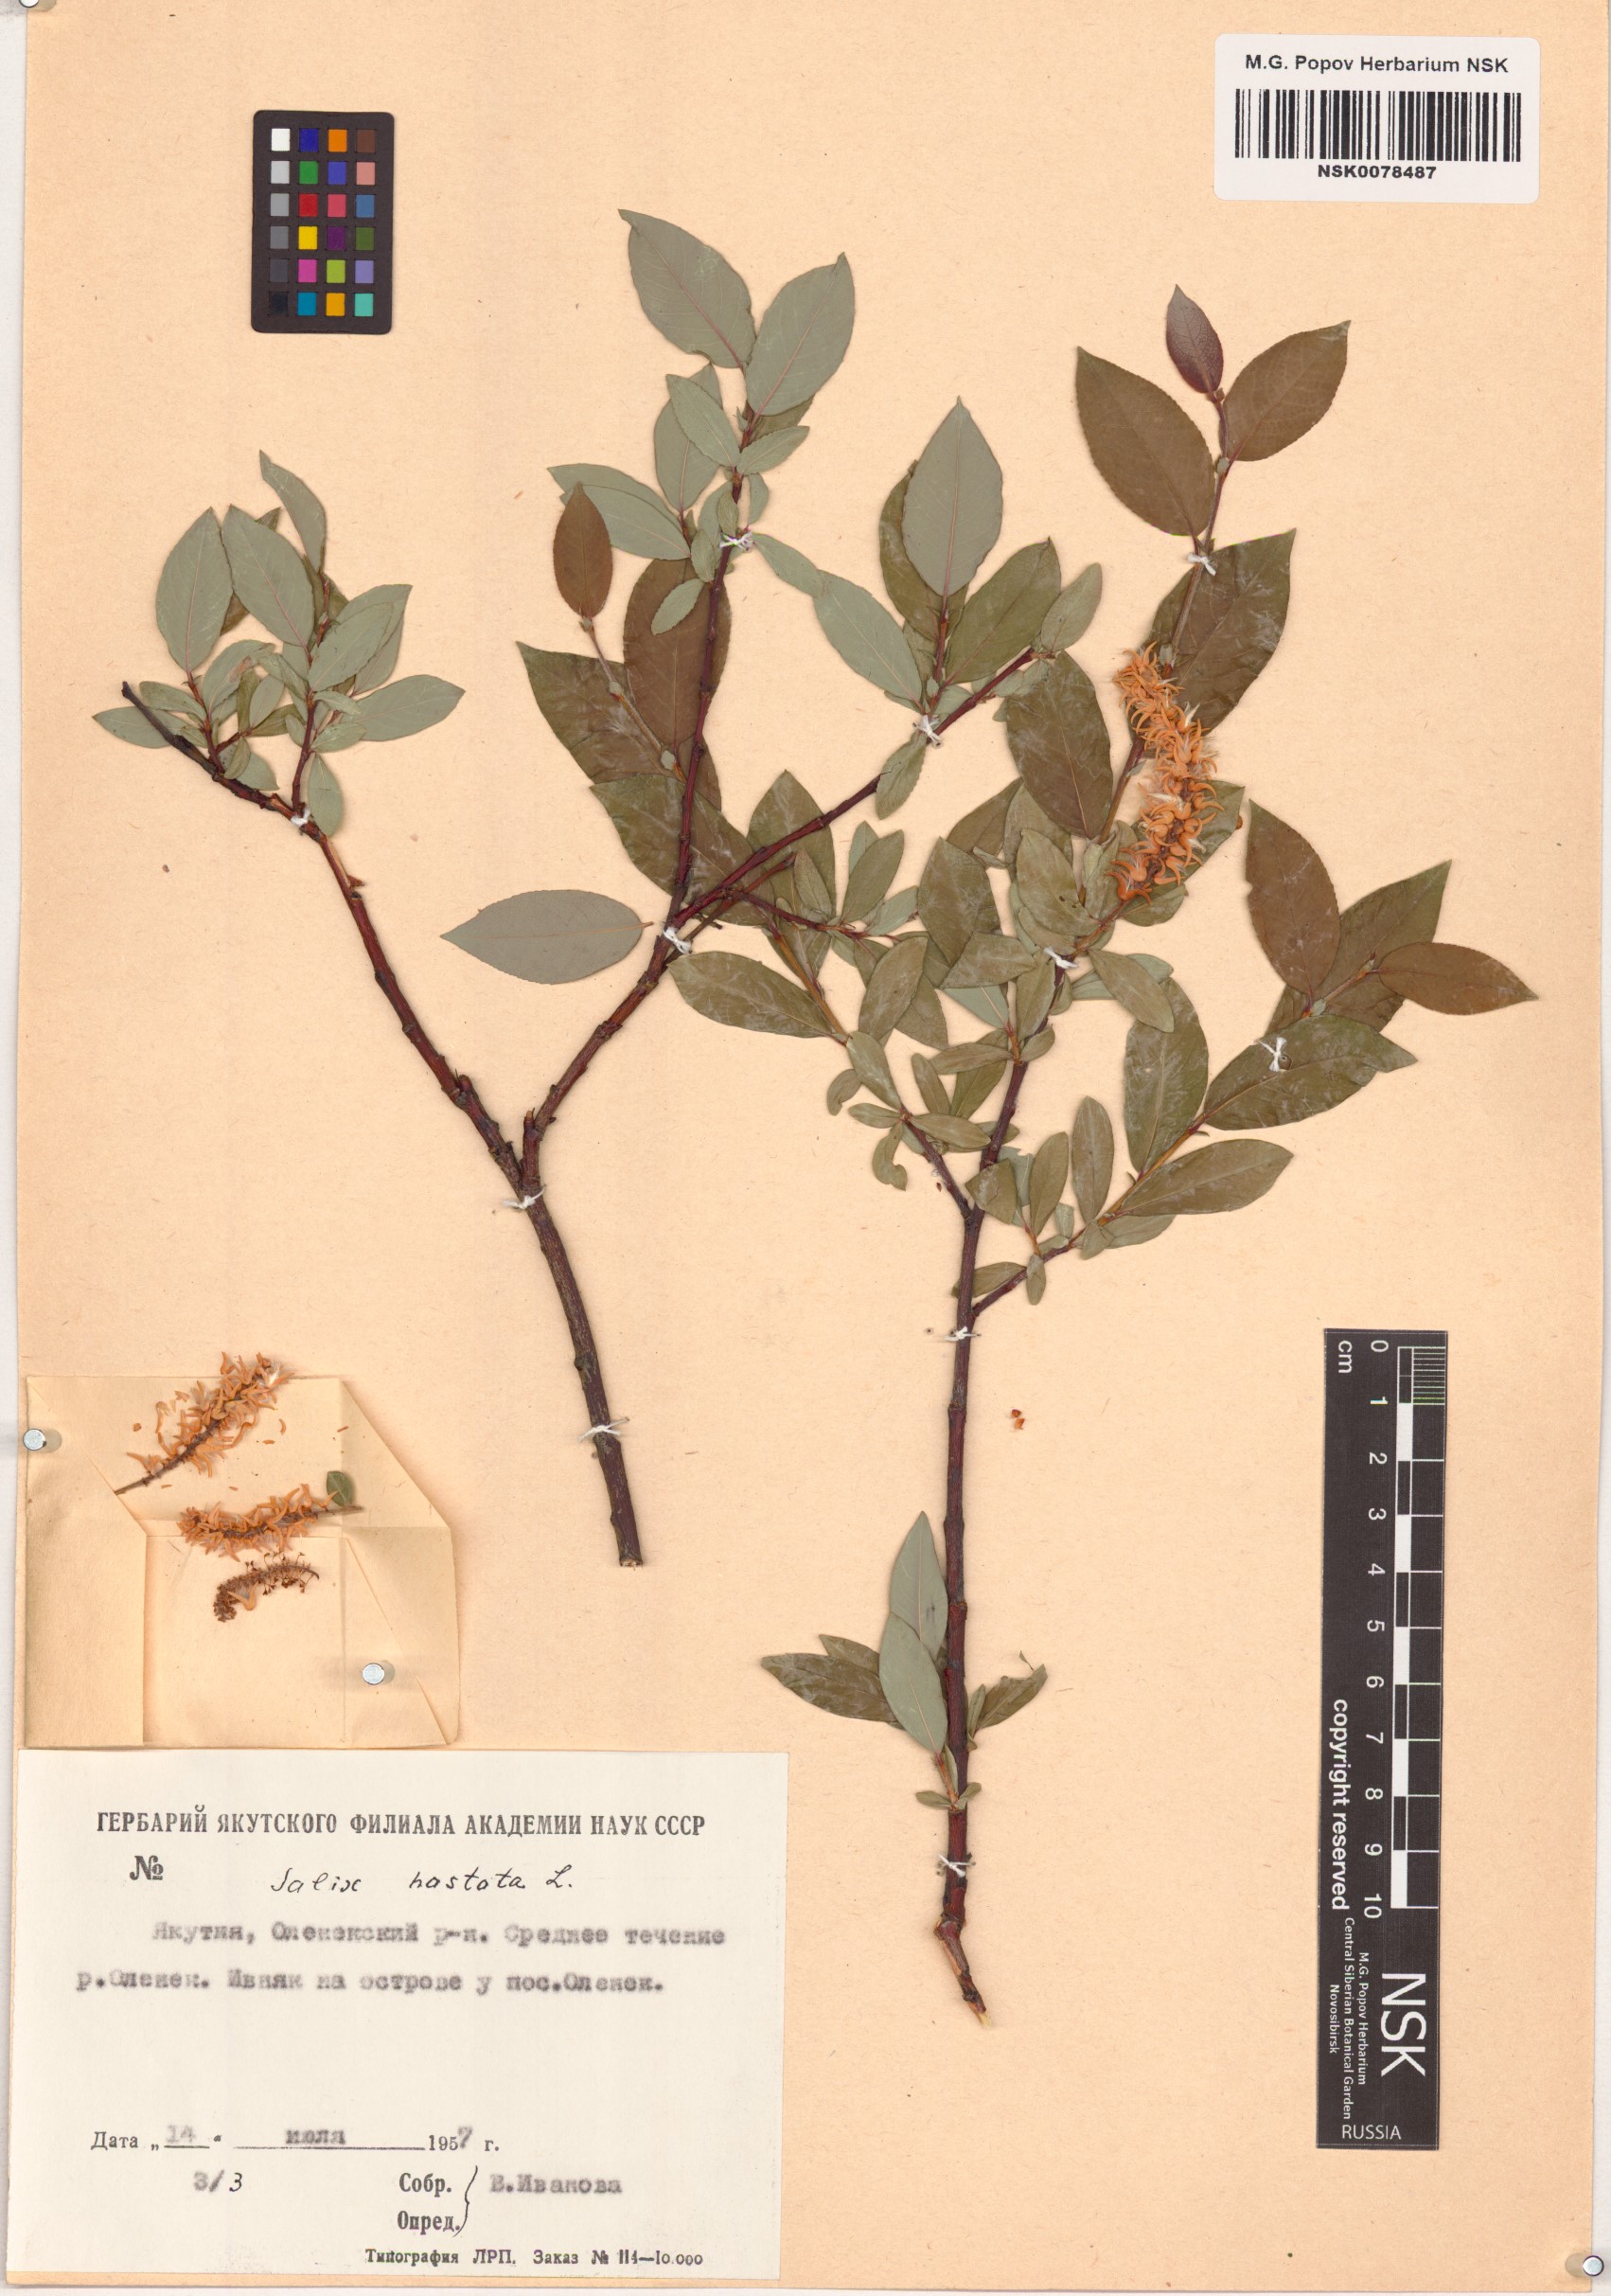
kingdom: Plantae
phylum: Tracheophyta
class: Magnoliopsida
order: Malpighiales
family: Salicaceae
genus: Salix
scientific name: Salix hastata
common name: Halberd willow
